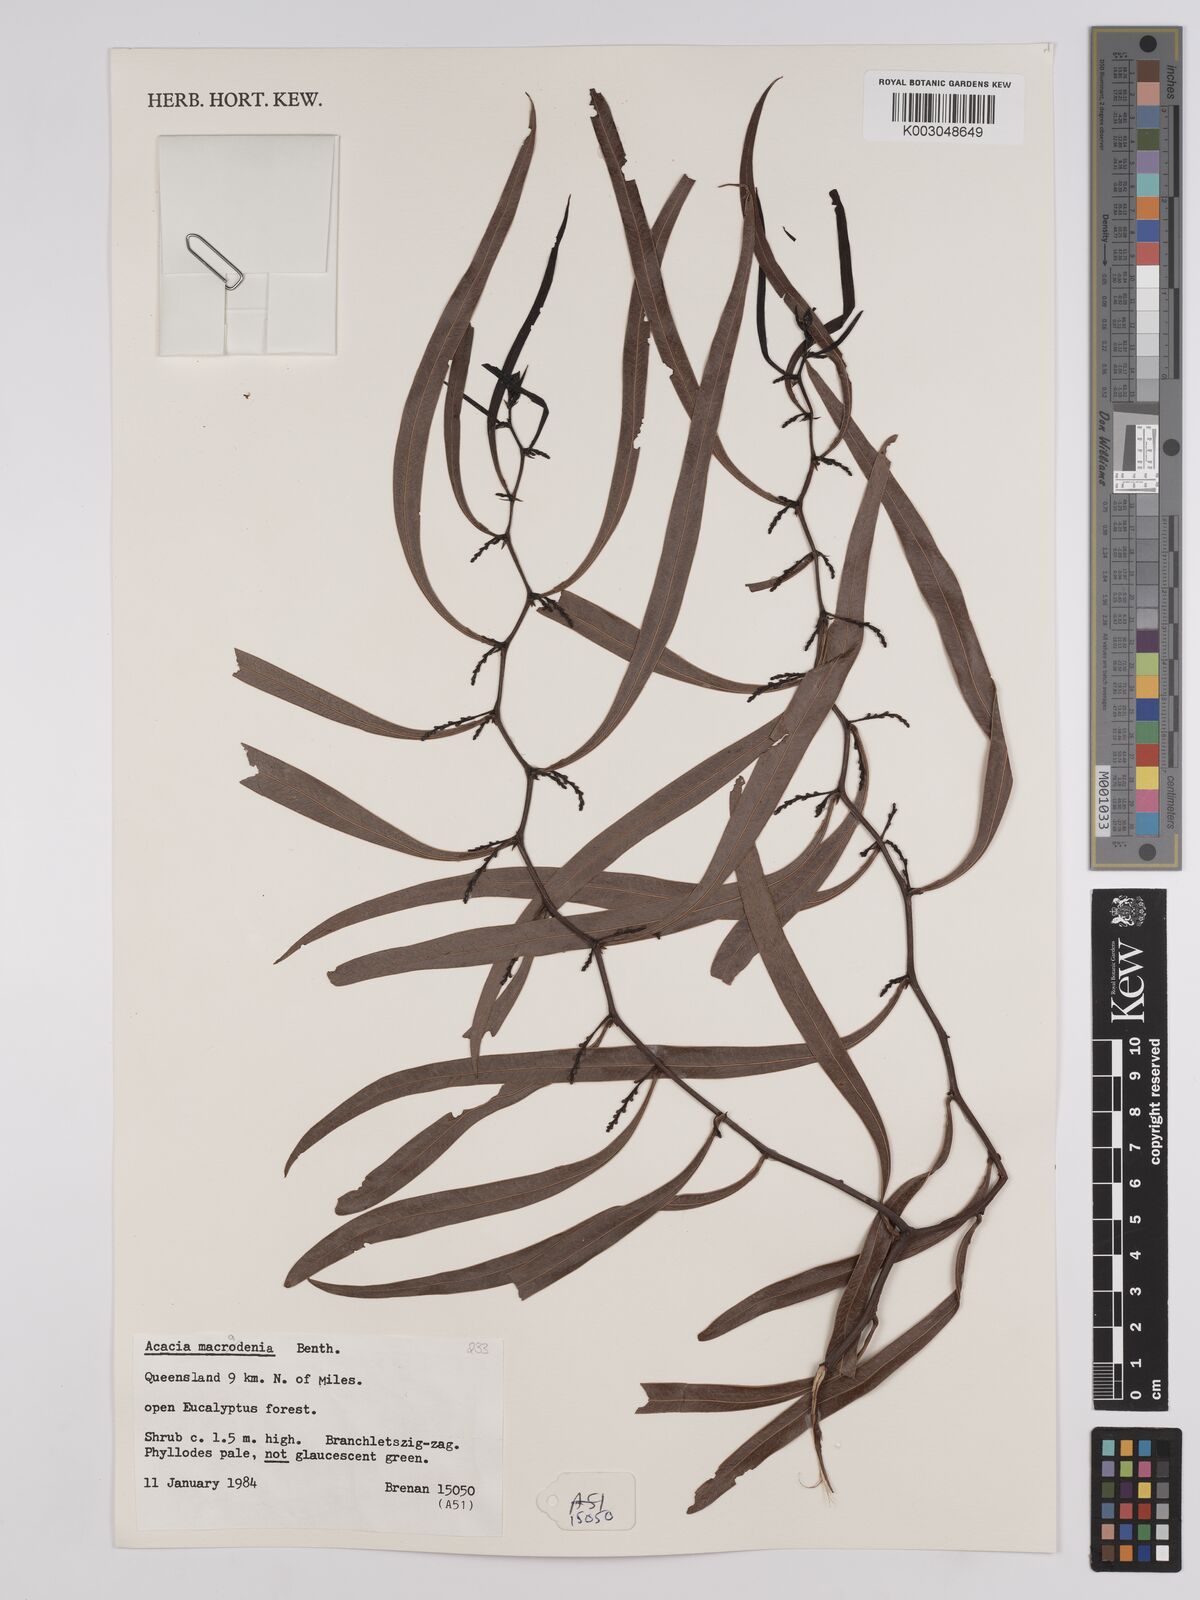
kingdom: Plantae
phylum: Tracheophyta
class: Magnoliopsida
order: Fabales
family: Fabaceae
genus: Acacia
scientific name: Acacia macradenia
